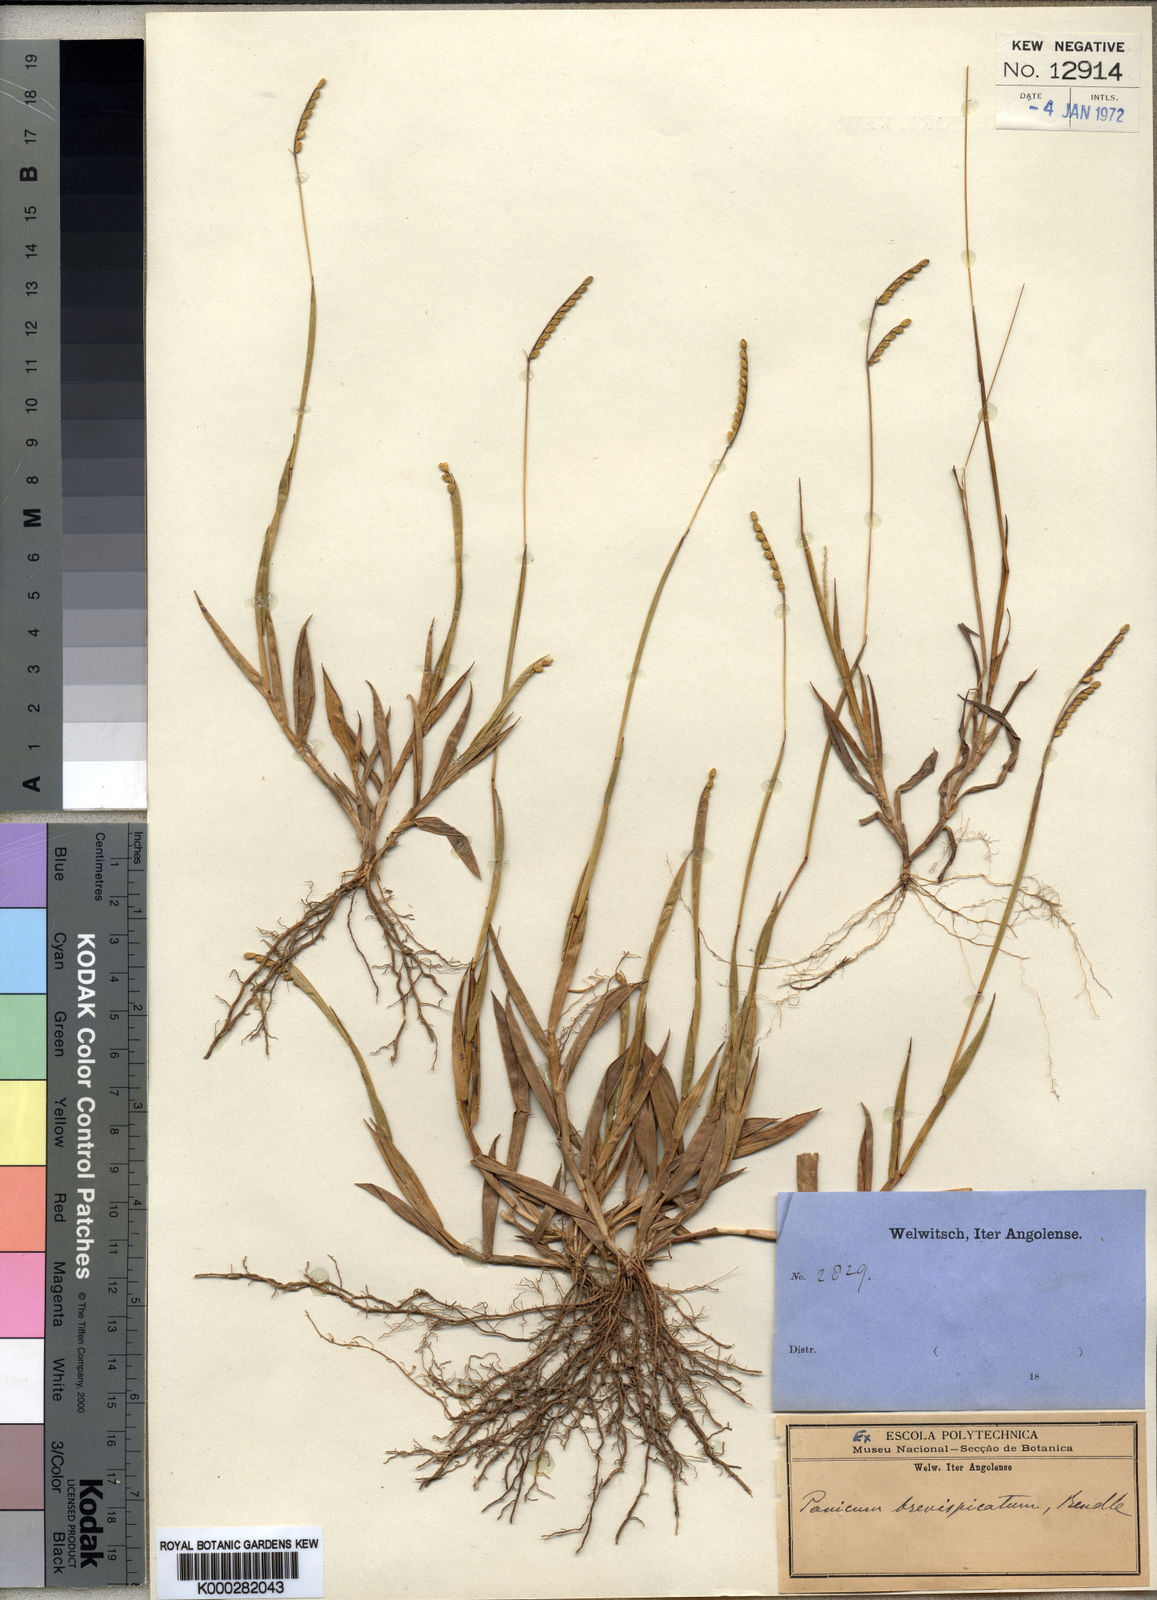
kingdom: Plantae
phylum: Tracheophyta
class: Liliopsida
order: Poales
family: Poaceae
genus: Urochloa
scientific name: Urochloa brevispicata
